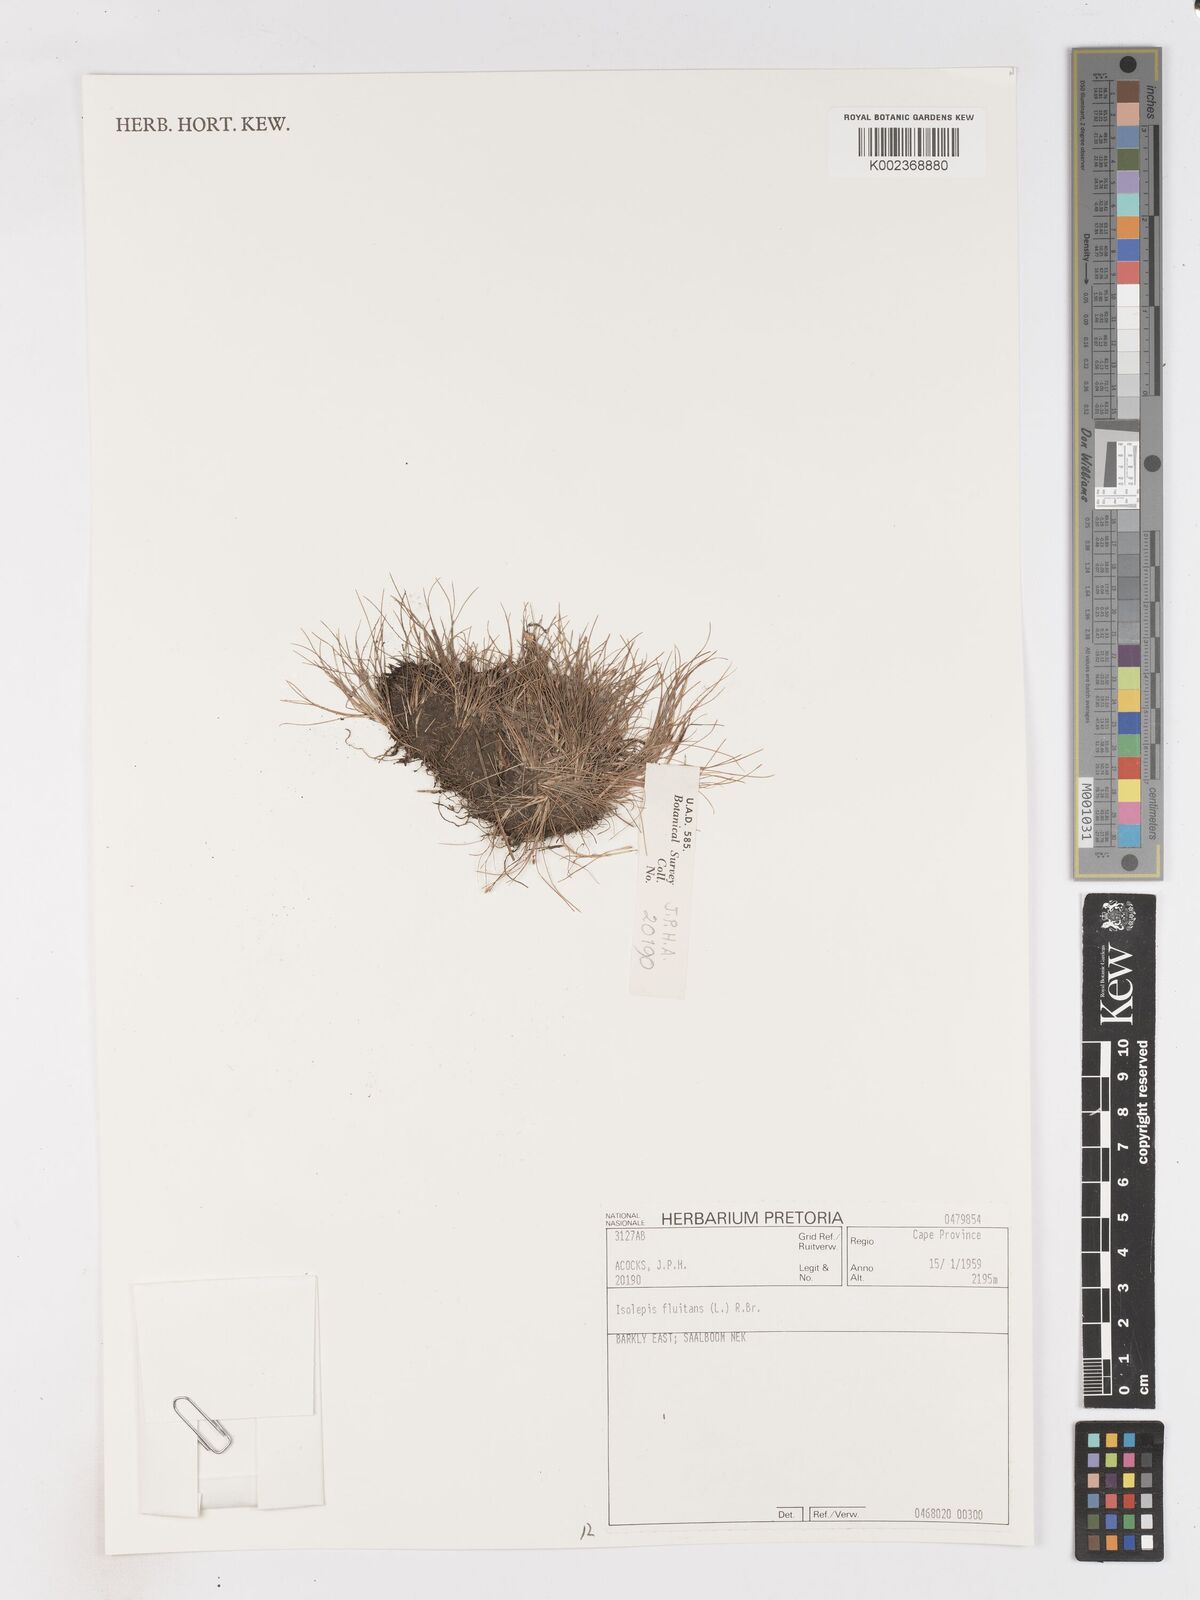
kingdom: Plantae
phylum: Tracheophyta
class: Liliopsida
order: Poales
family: Cyperaceae
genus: Isolepis
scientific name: Isolepis
